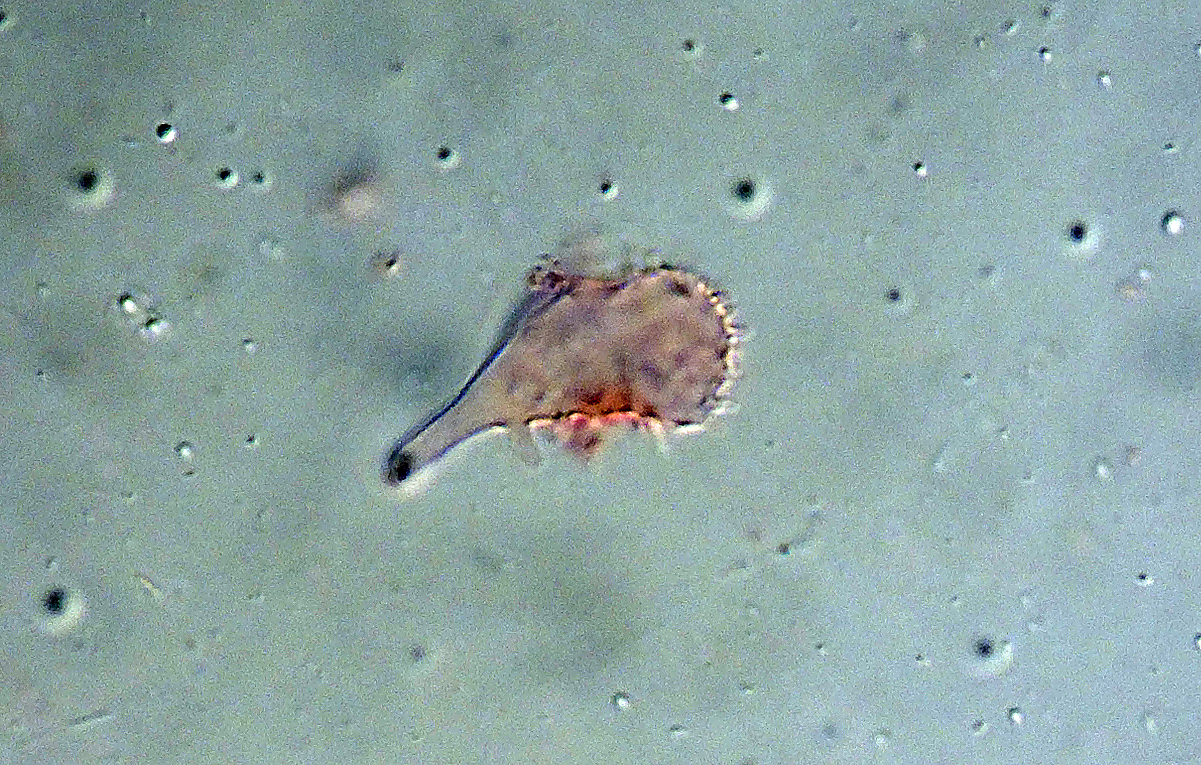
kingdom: Fungi
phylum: Basidiomycota
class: Agaricomycetes
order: Agaricales
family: Mycenaceae
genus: Mycena
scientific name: Mycena megaspora
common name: brusk-huesvamp
